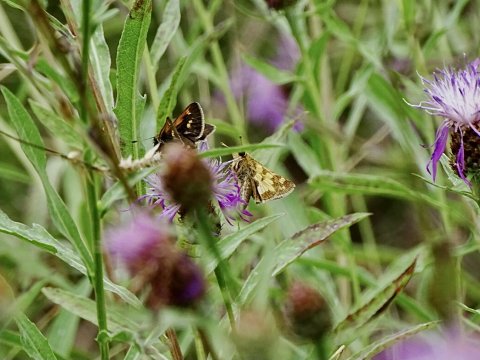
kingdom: Animalia
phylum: Arthropoda
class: Insecta
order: Lepidoptera
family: Hesperiidae
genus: Polites
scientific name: Polites coras
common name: Peck's Skipper
